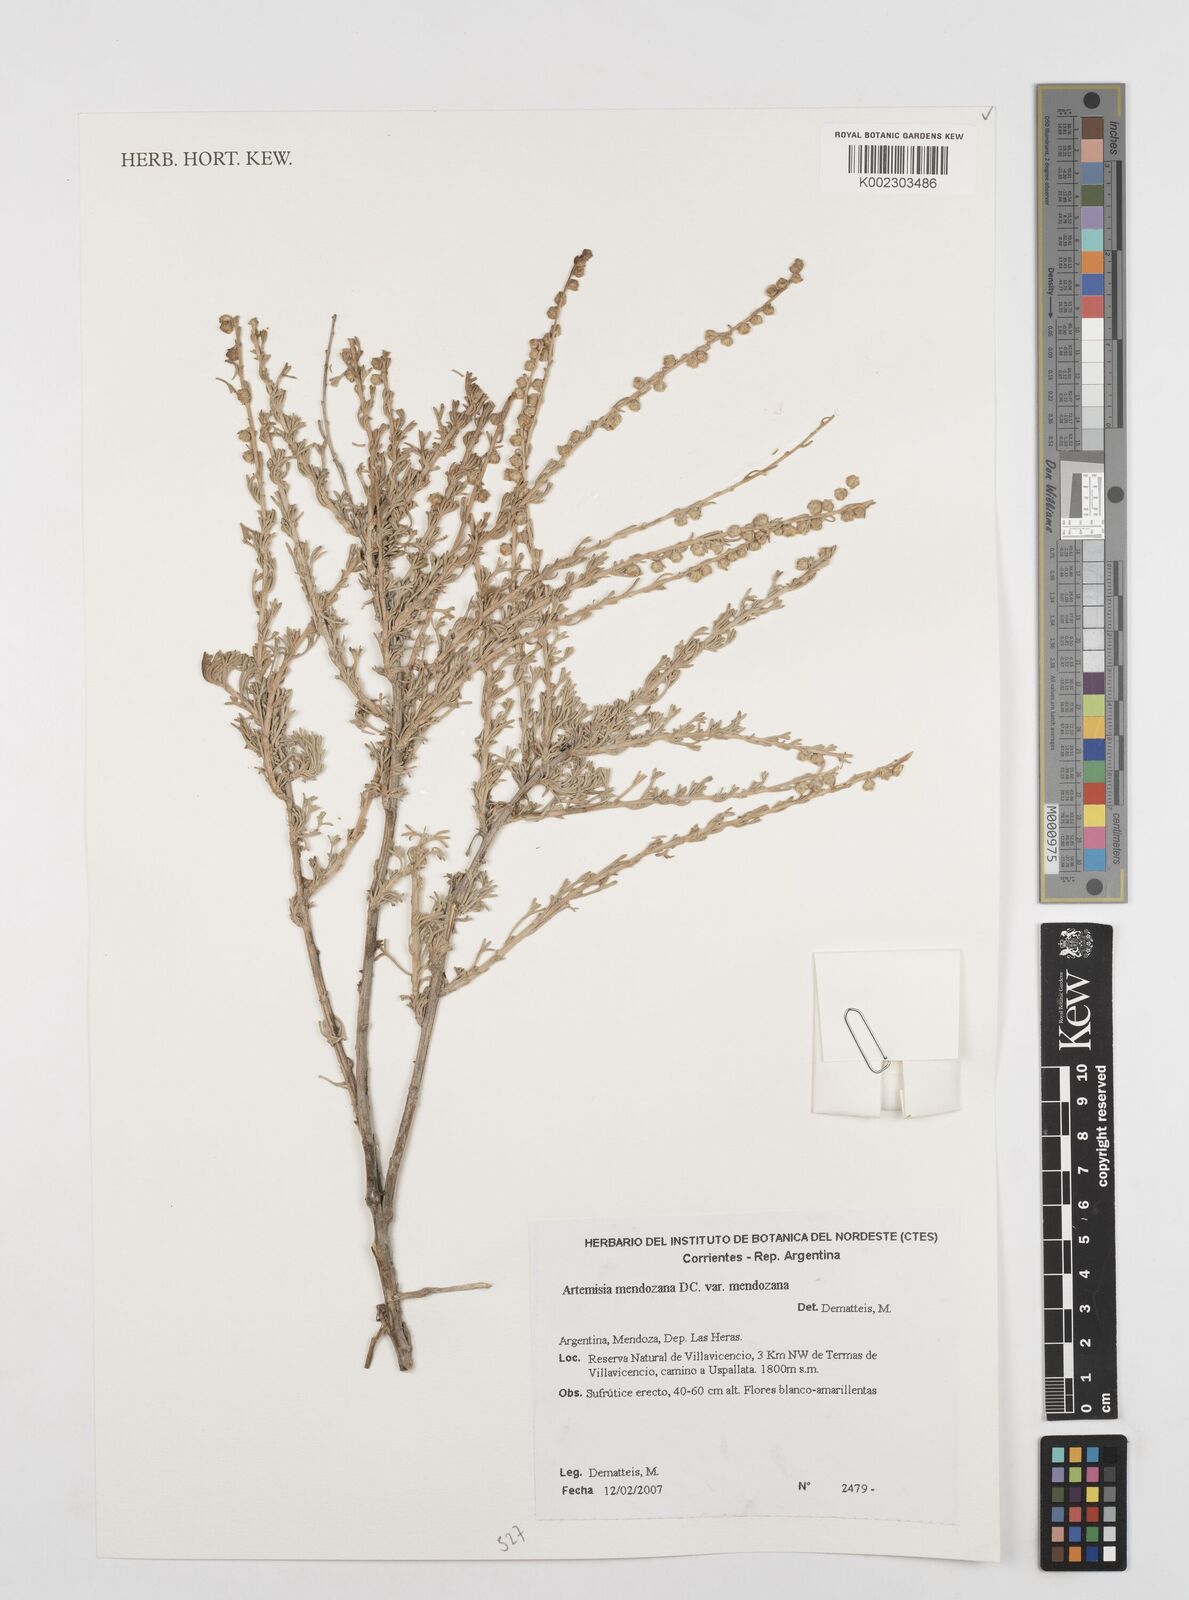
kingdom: Plantae
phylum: Tracheophyta
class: Magnoliopsida
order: Asterales
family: Asteraceae
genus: Artemisia
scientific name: Artemisia mendozana
